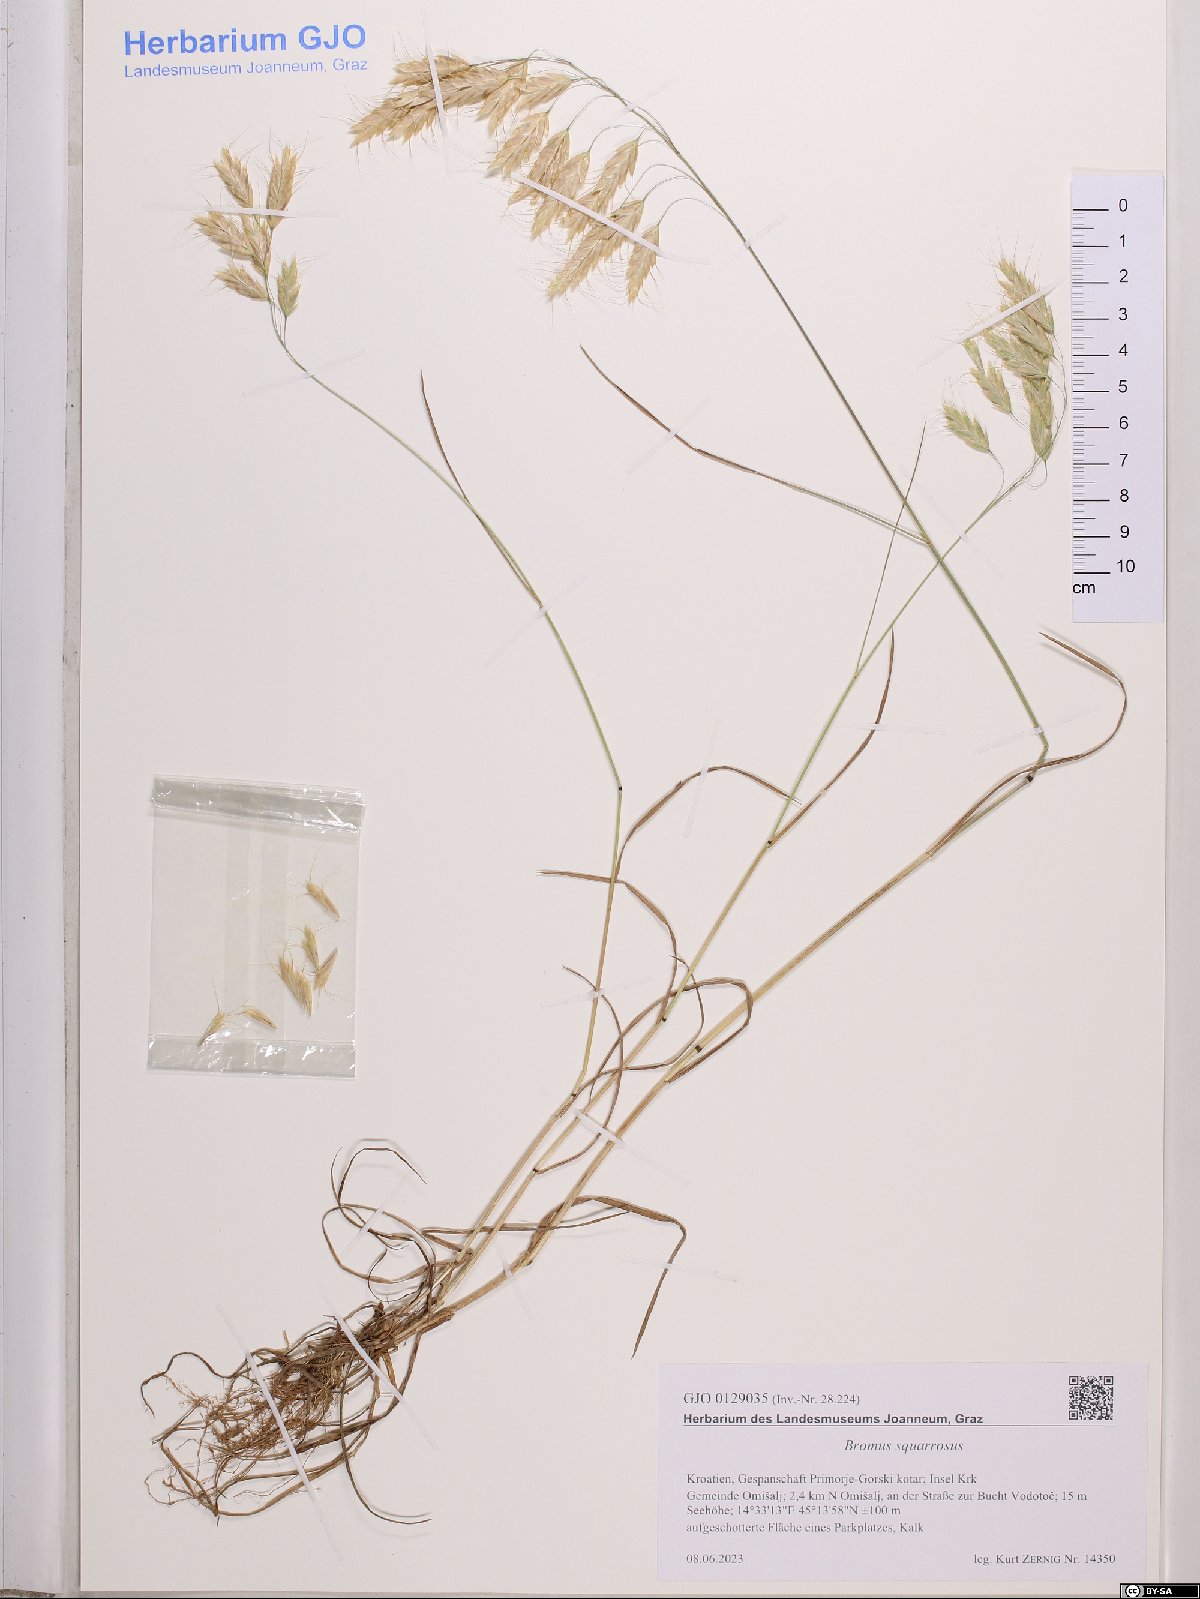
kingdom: Plantae
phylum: Tracheophyta
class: Liliopsida
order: Poales
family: Poaceae
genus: Bromus
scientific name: Bromus squarrosus
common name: Corn brome
